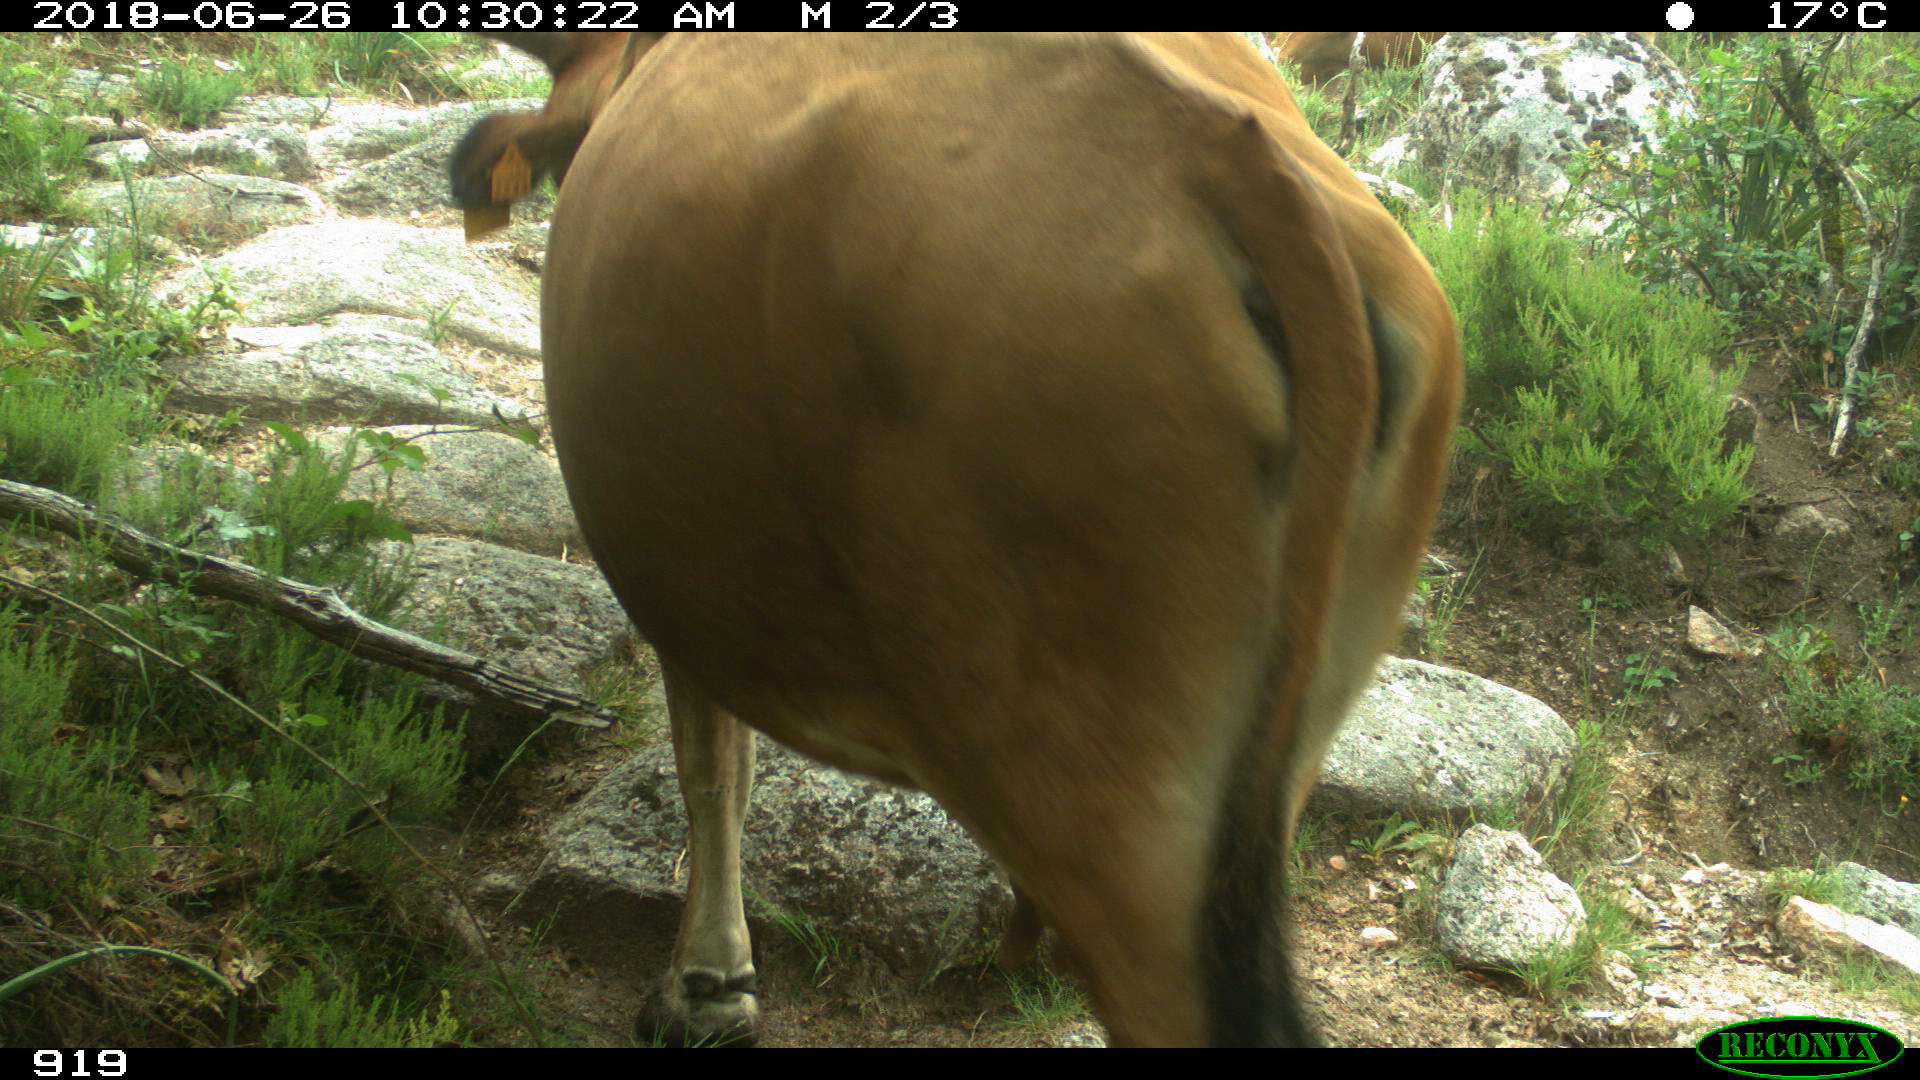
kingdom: Animalia
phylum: Chordata
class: Mammalia
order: Artiodactyla
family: Bovidae
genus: Bos
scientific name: Bos taurus
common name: Domesticated cattle
